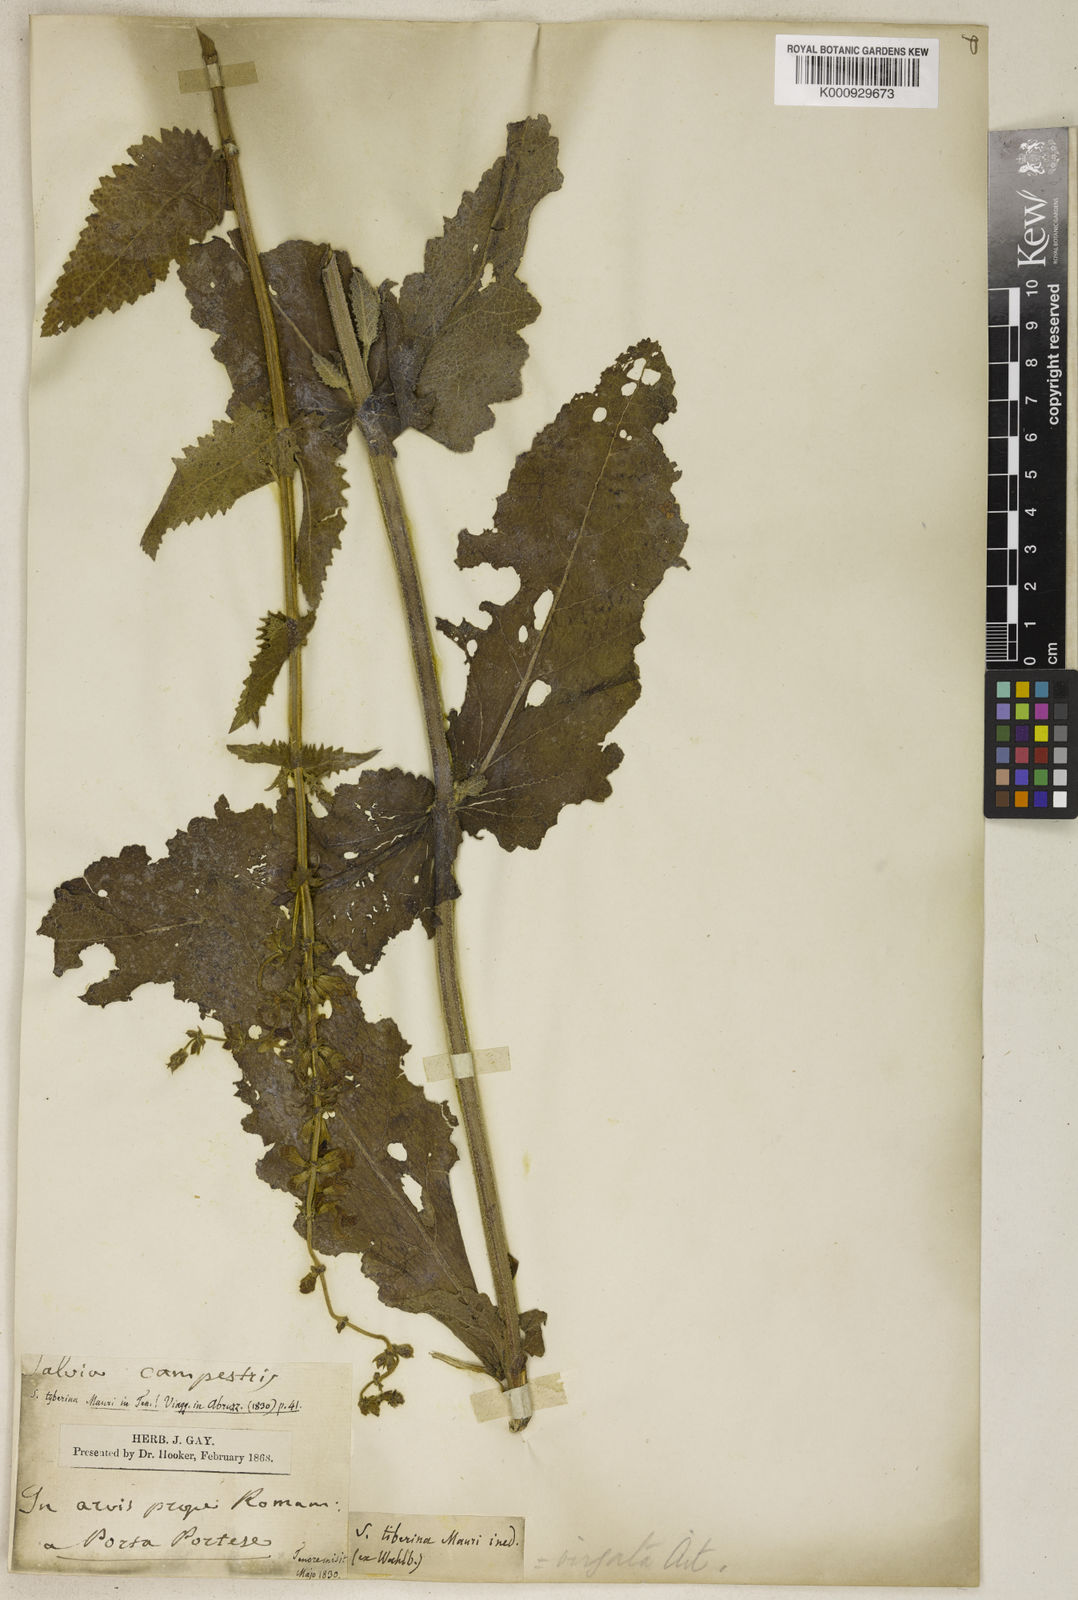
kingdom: Plantae
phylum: Tracheophyta
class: Magnoliopsida
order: Lamiales
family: Lamiaceae
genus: Salvia
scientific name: Salvia farinacea
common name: Mealy sage
